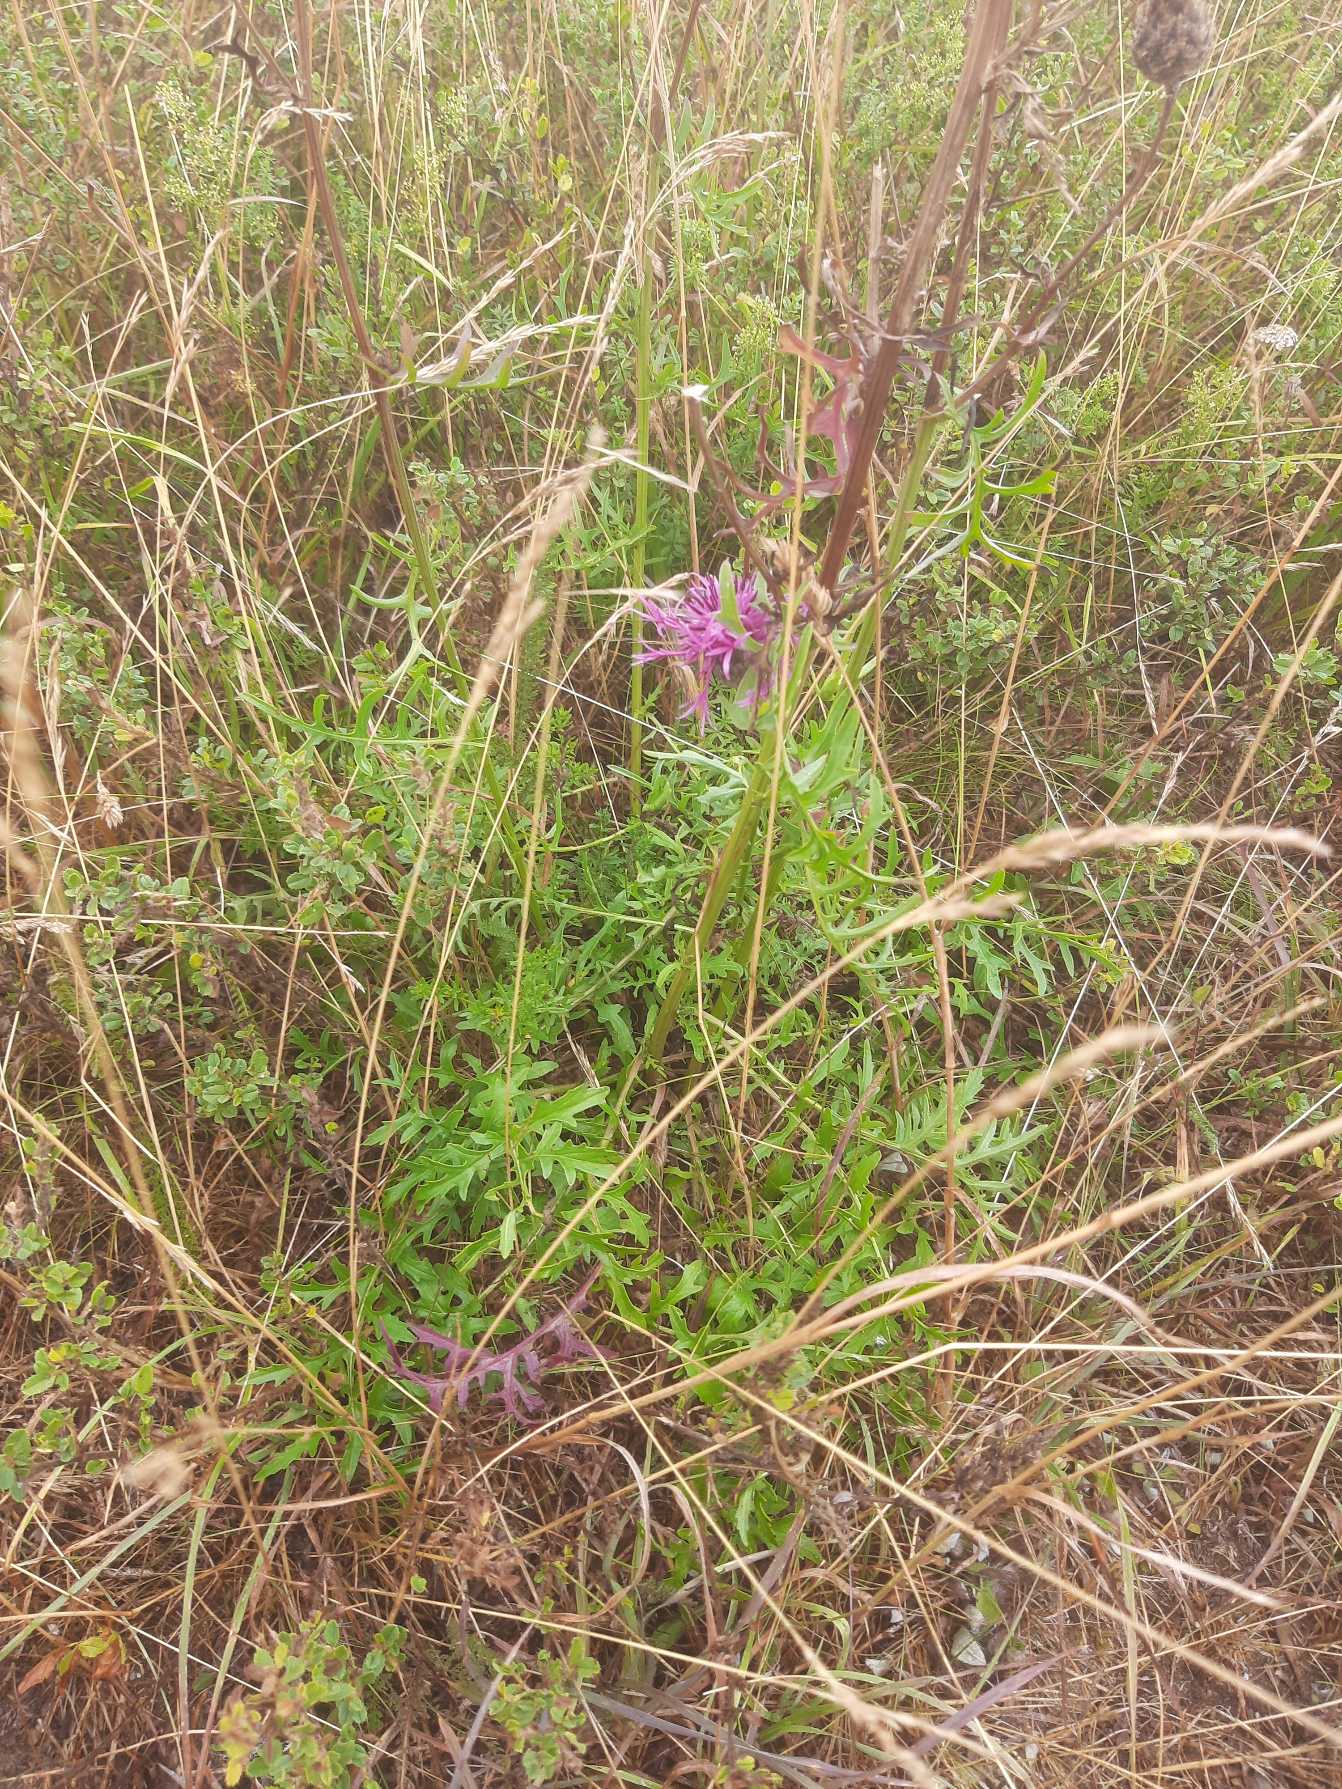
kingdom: Plantae
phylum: Tracheophyta
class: Magnoliopsida
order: Asterales
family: Asteraceae
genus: Centaurea
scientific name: Centaurea scabiosa
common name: Stor knopurt
